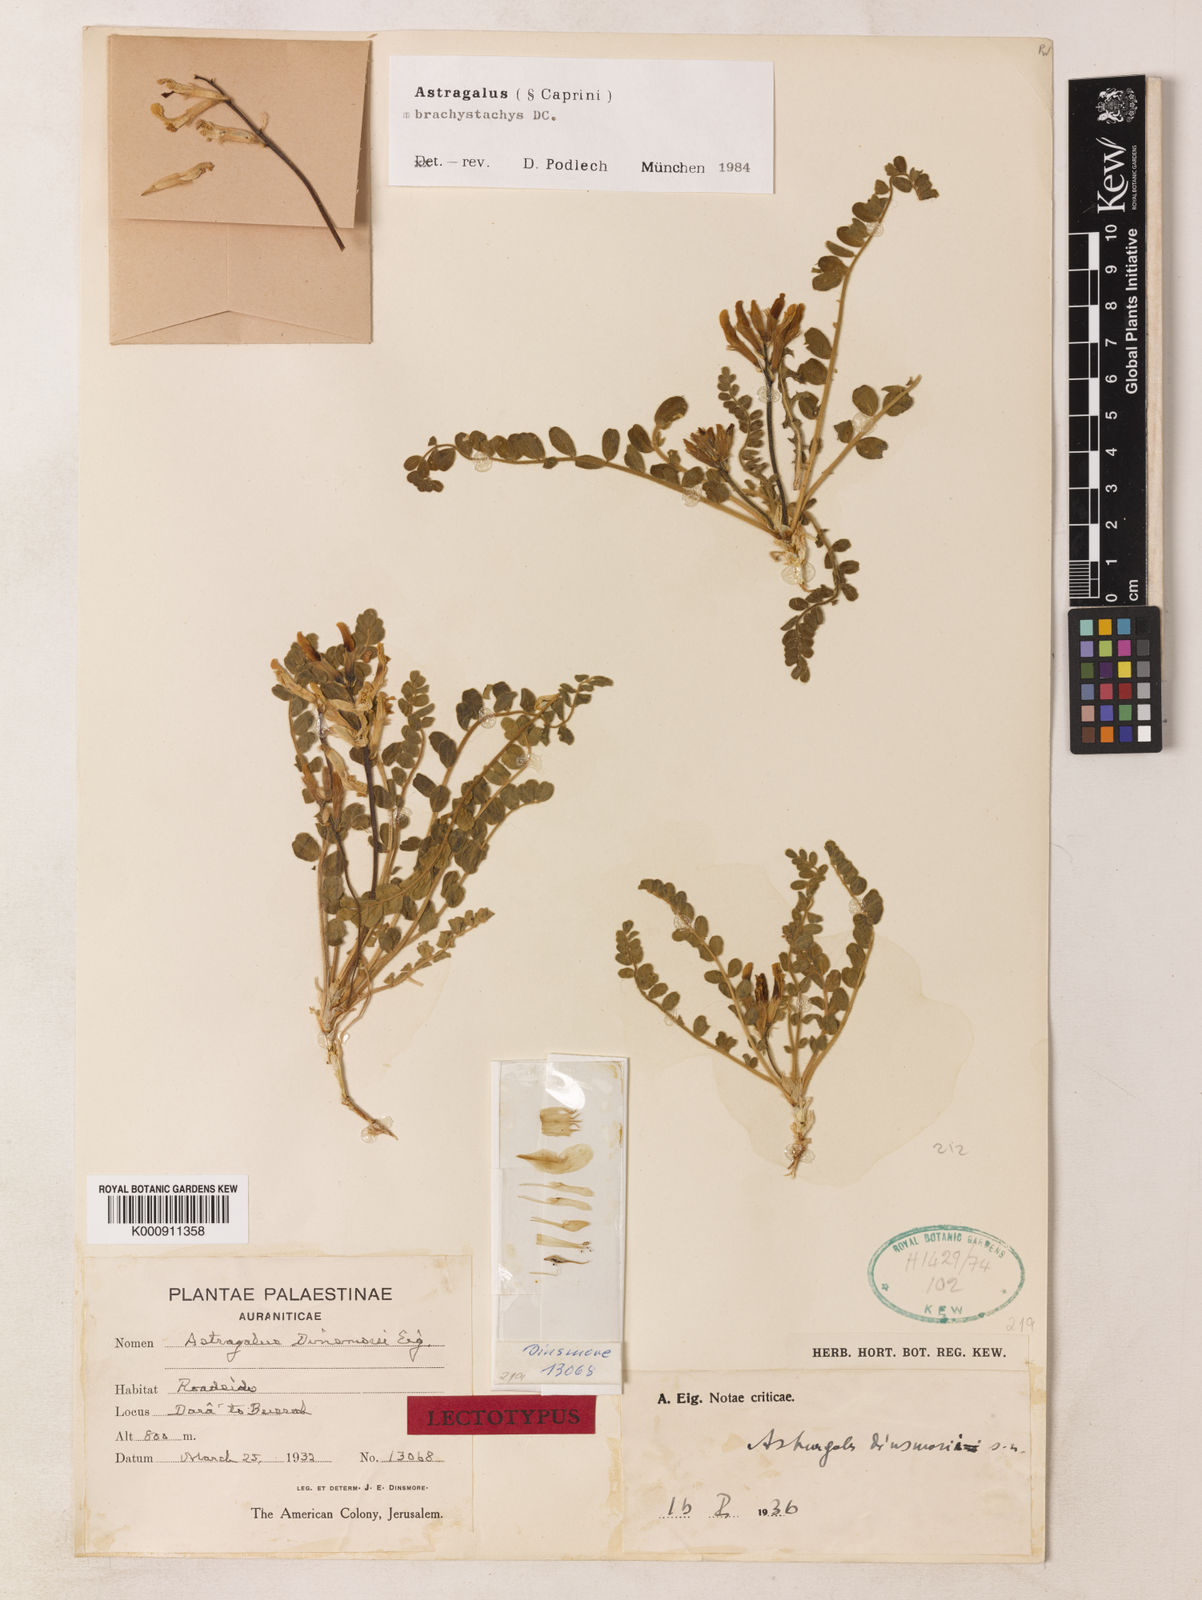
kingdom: Plantae
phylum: Tracheophyta
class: Magnoliopsida
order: Fabales
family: Fabaceae
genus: Astragalus
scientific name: Astragalus brachystachys
